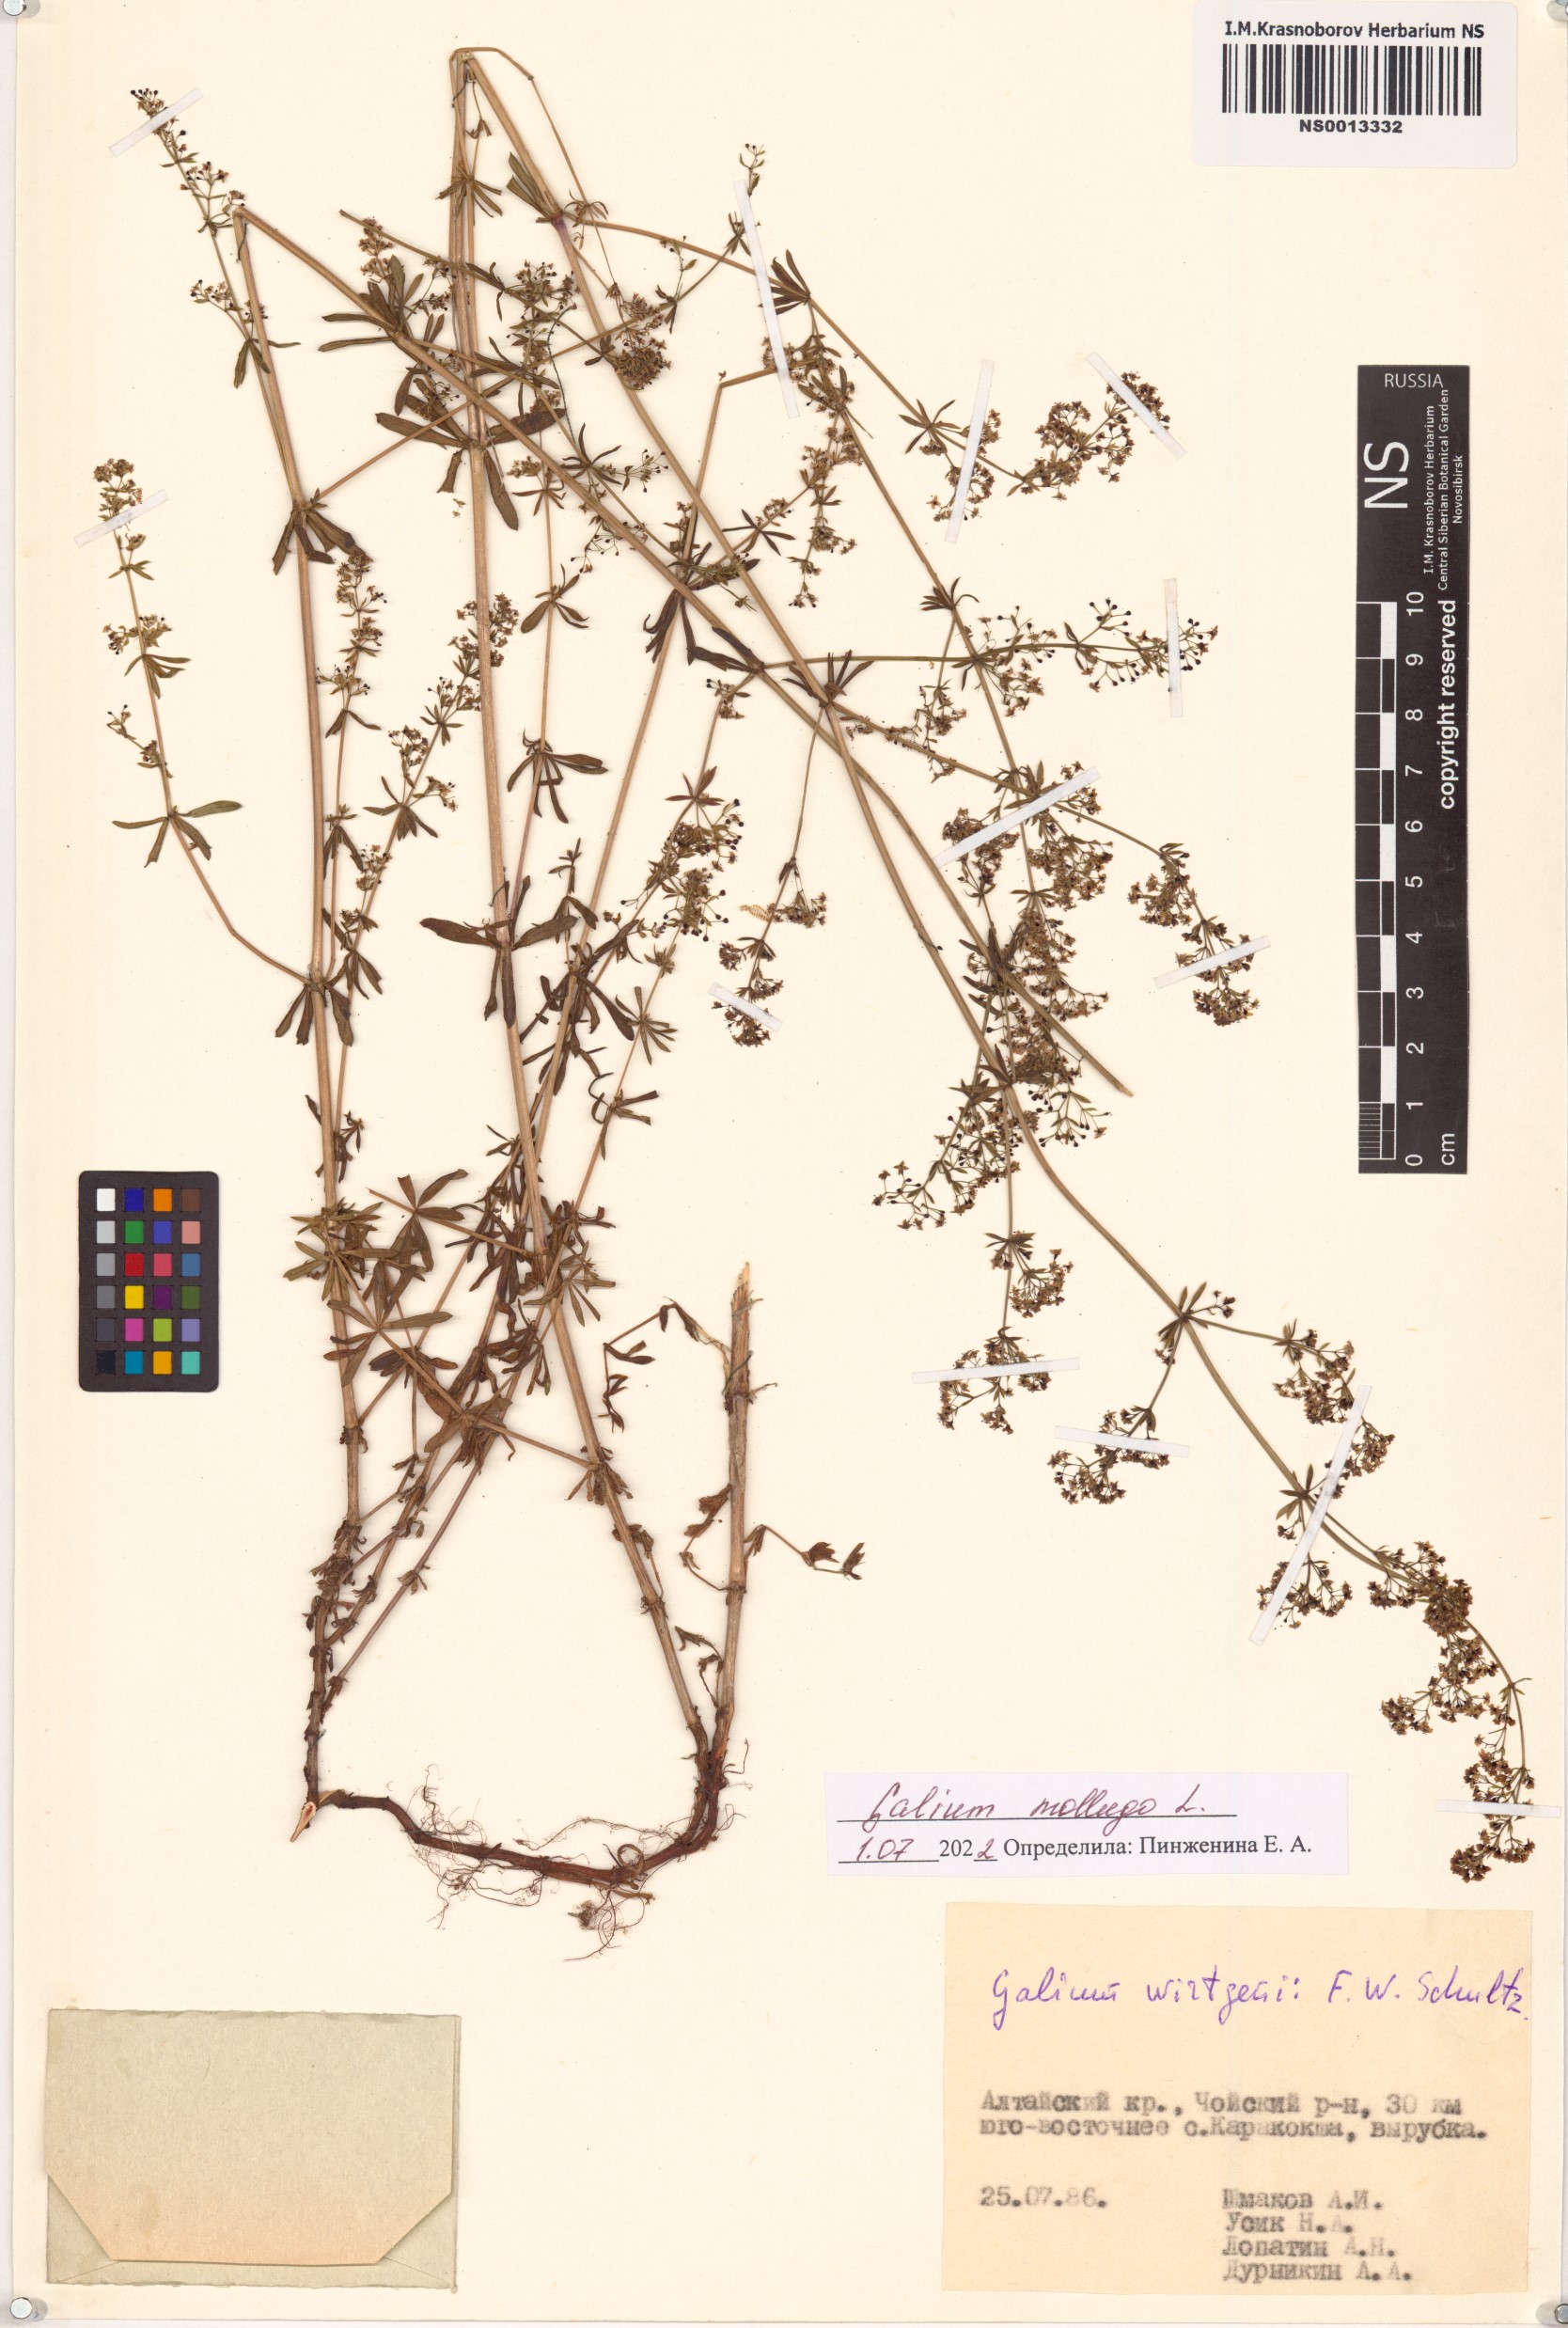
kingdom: Plantae
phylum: Tracheophyta
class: Magnoliopsida
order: Gentianales
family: Rubiaceae
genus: Galium
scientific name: Galium mollugo
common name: Hedge bedstraw
